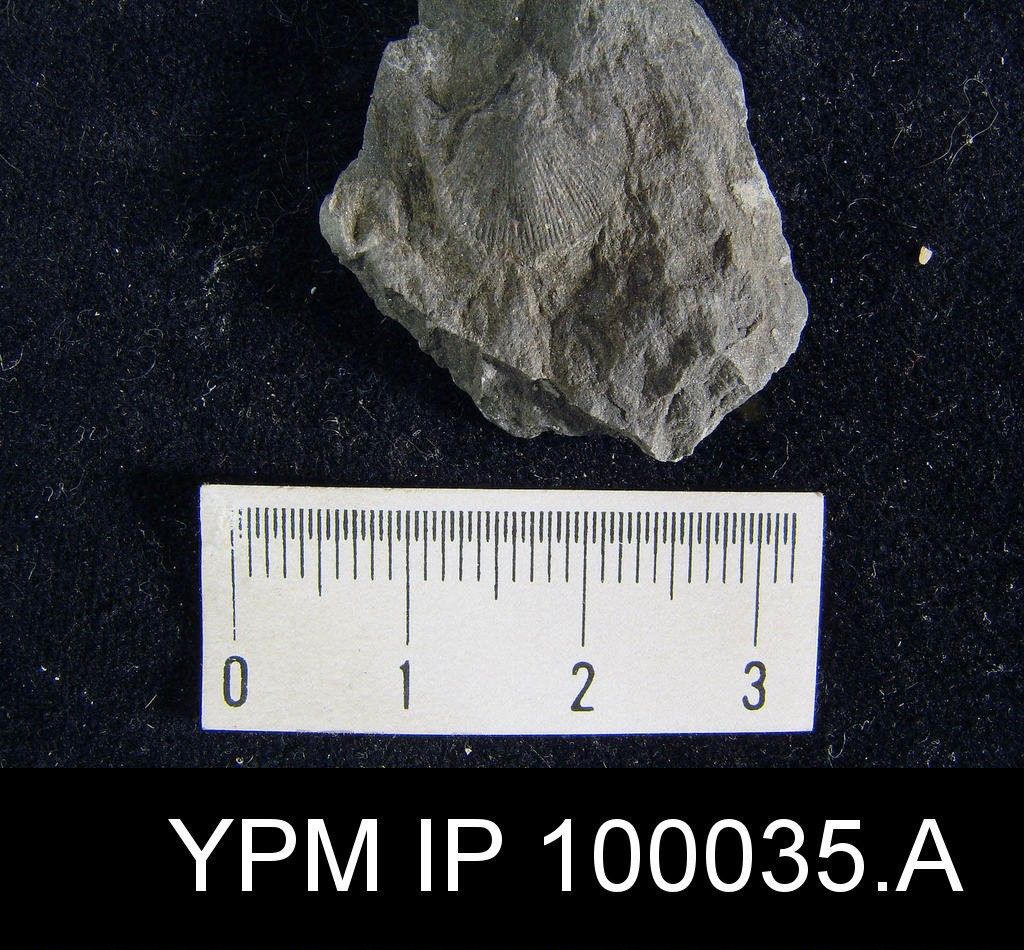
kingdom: Animalia
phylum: Brachiopoda
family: Chonetidae
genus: Chonetes
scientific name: Chonetes
